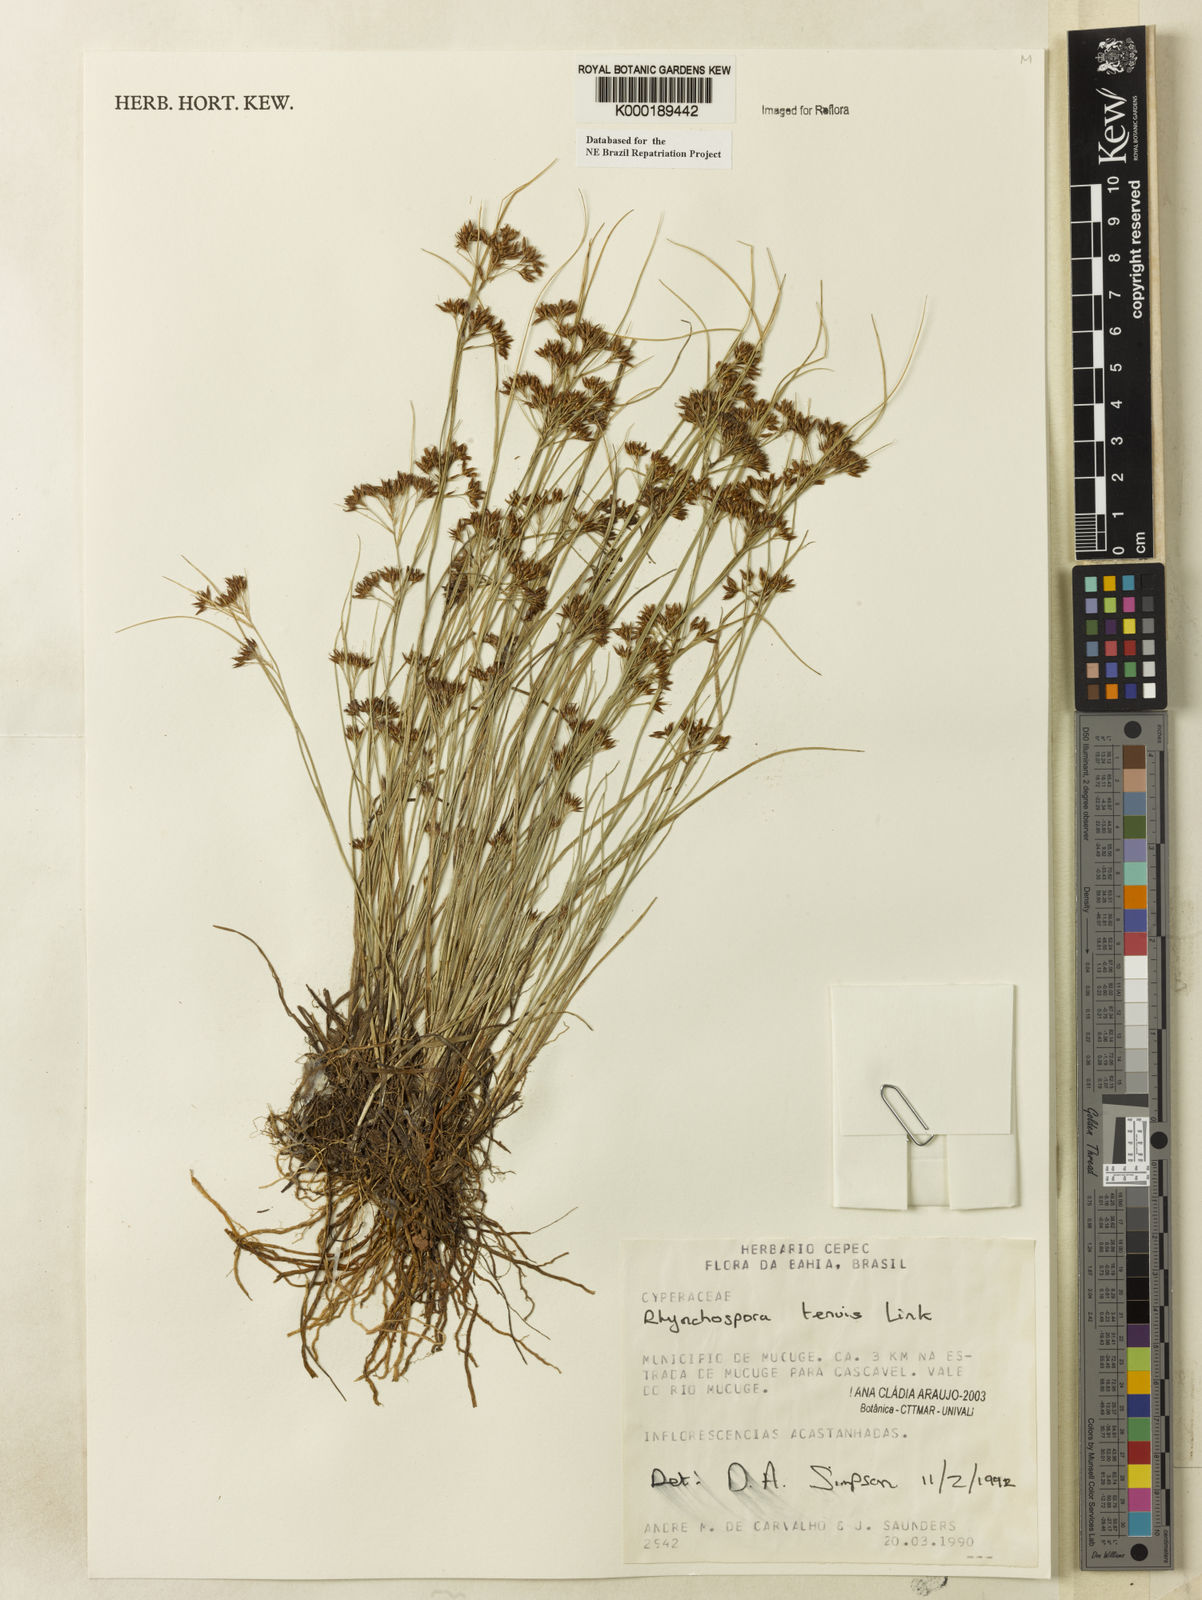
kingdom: Plantae
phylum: Tracheophyta
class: Liliopsida
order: Poales
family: Cyperaceae
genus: Rhynchospora
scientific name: Rhynchospora tenuis
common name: Quill beaksedge
